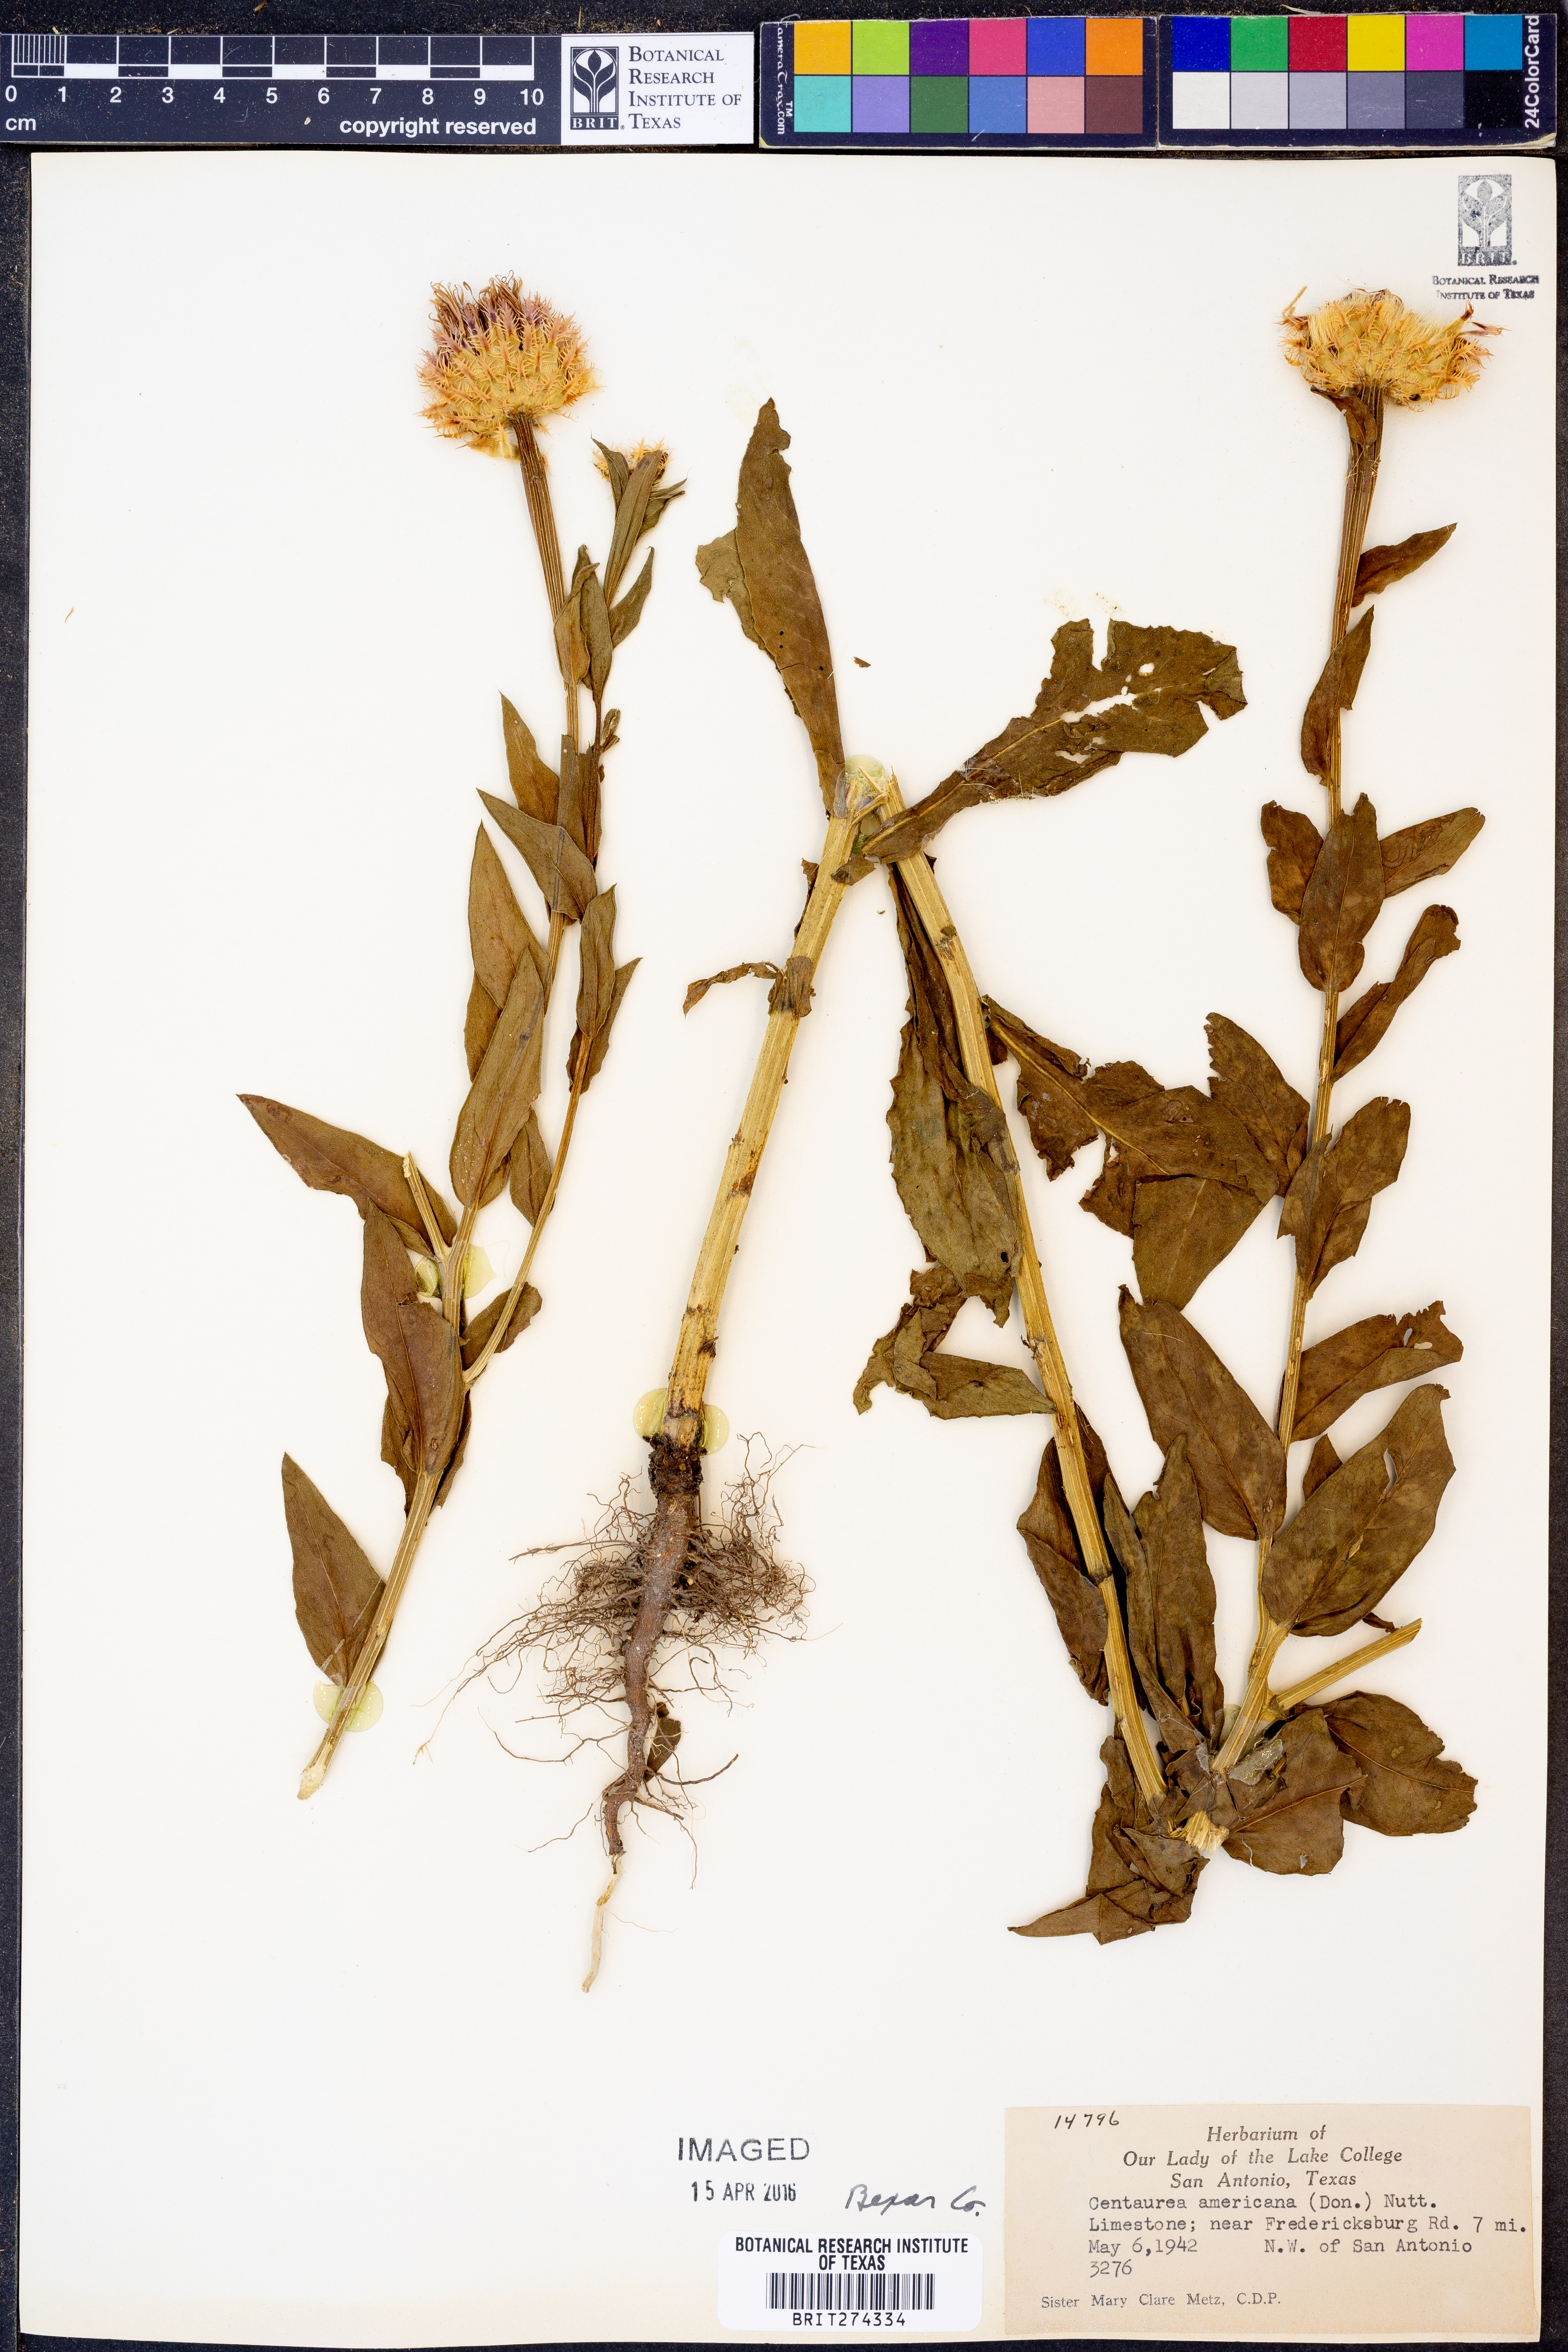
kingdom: Plantae
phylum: Tracheophyta
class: Magnoliopsida
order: Asterales
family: Asteraceae
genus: Plectocephalus
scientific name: Plectocephalus americanus
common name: American basket-flower
